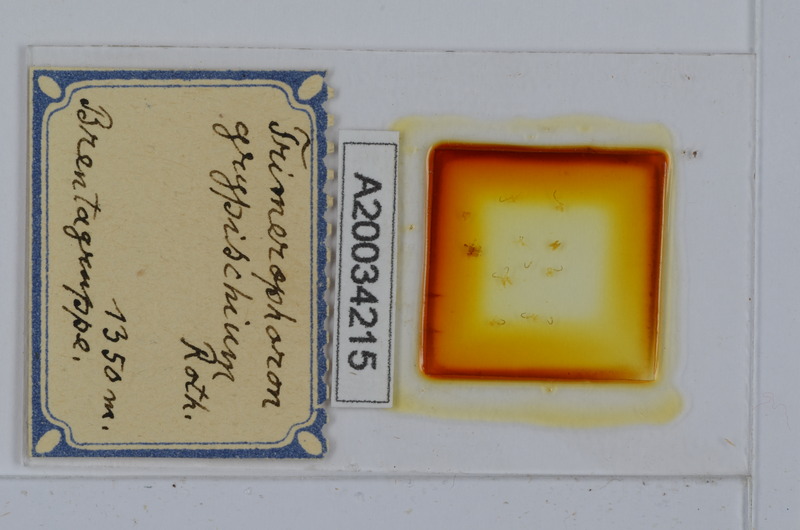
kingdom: Animalia
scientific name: Animalia
